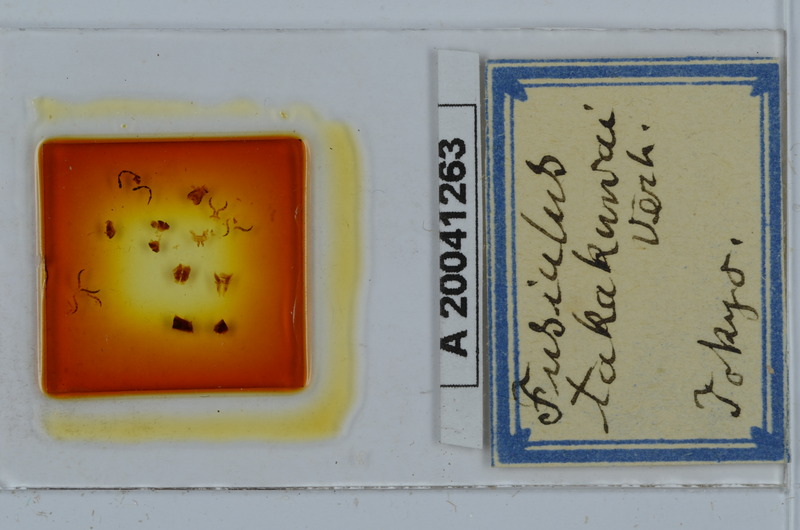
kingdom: Animalia
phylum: Arthropoda
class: Diplopoda
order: Julida
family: Julidae
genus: Fusiulus
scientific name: Fusiulus takakuwai
